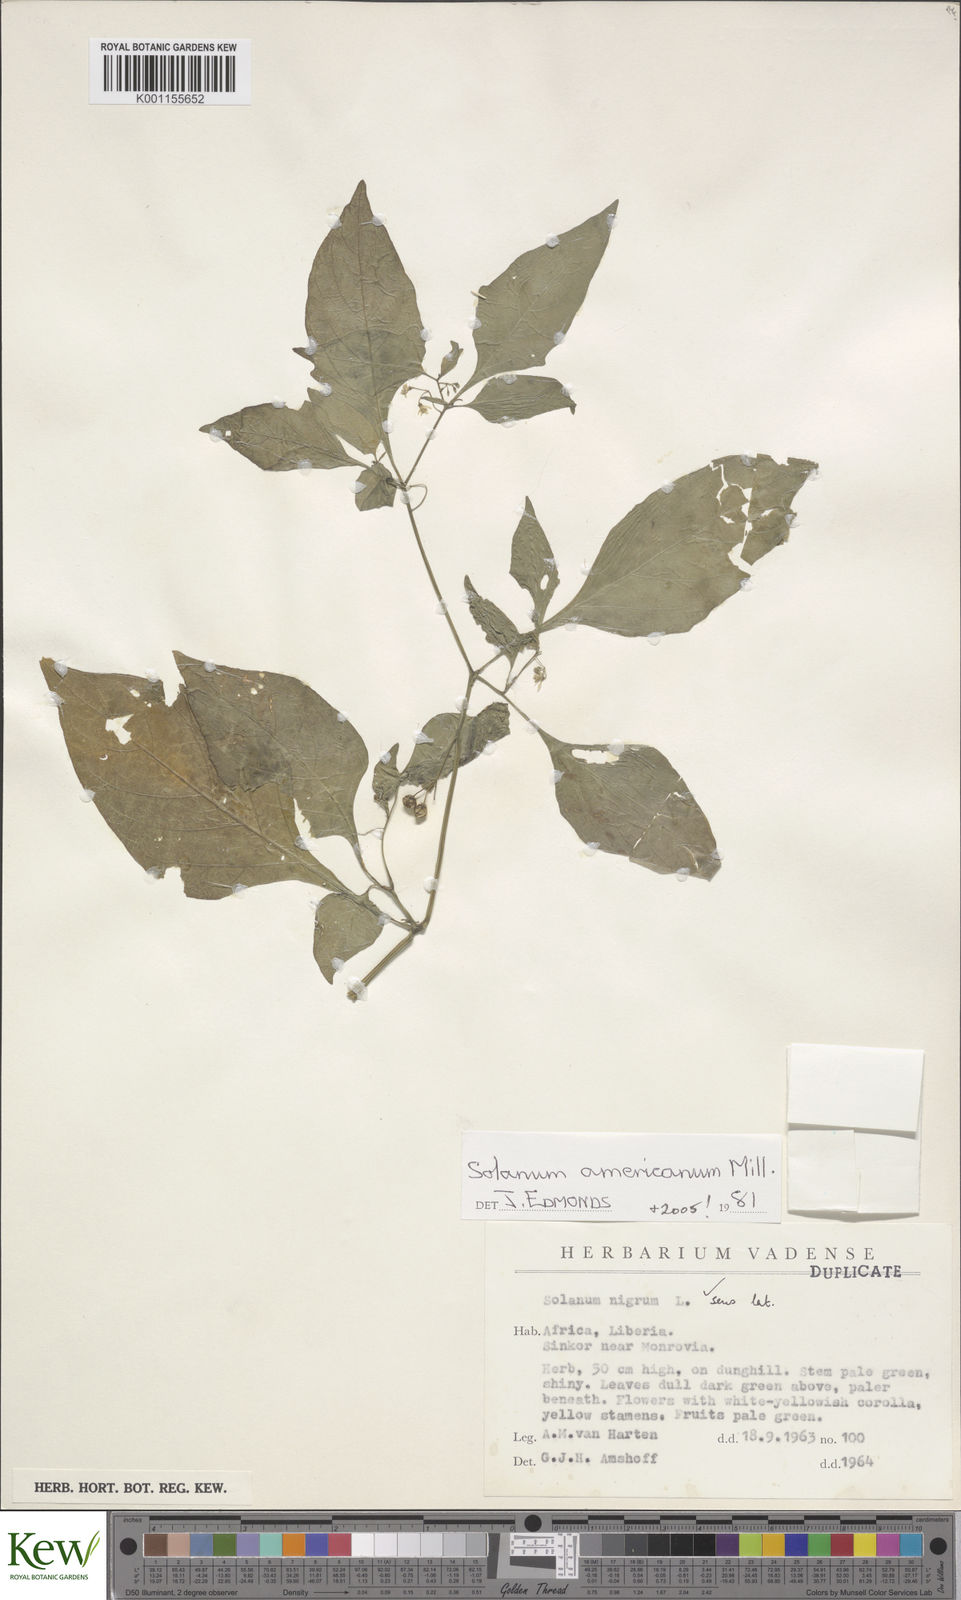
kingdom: Plantae
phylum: Tracheophyta
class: Magnoliopsida
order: Solanales
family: Solanaceae
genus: Solanum
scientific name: Solanum americanum
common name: American black nightshade
